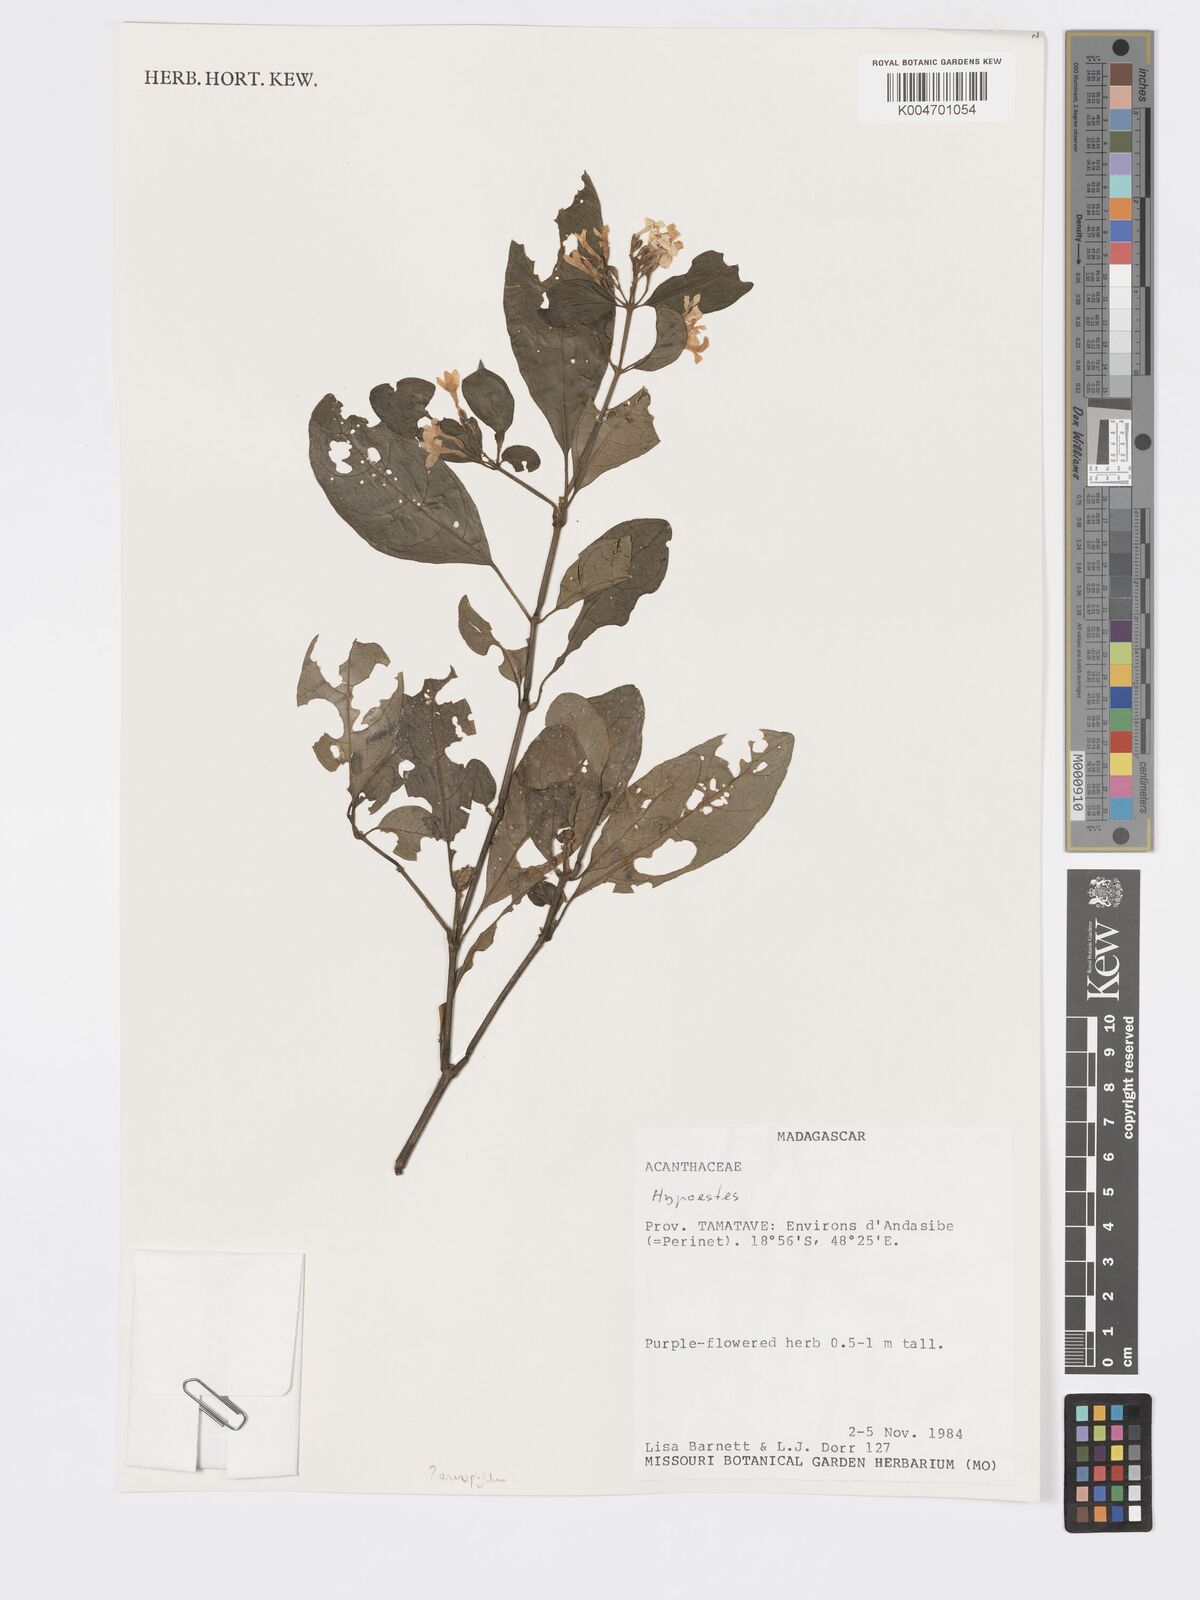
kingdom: Plantae
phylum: Tracheophyta
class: Magnoliopsida
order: Lamiales
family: Acanthaceae
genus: Hypoestes
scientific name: Hypoestes
